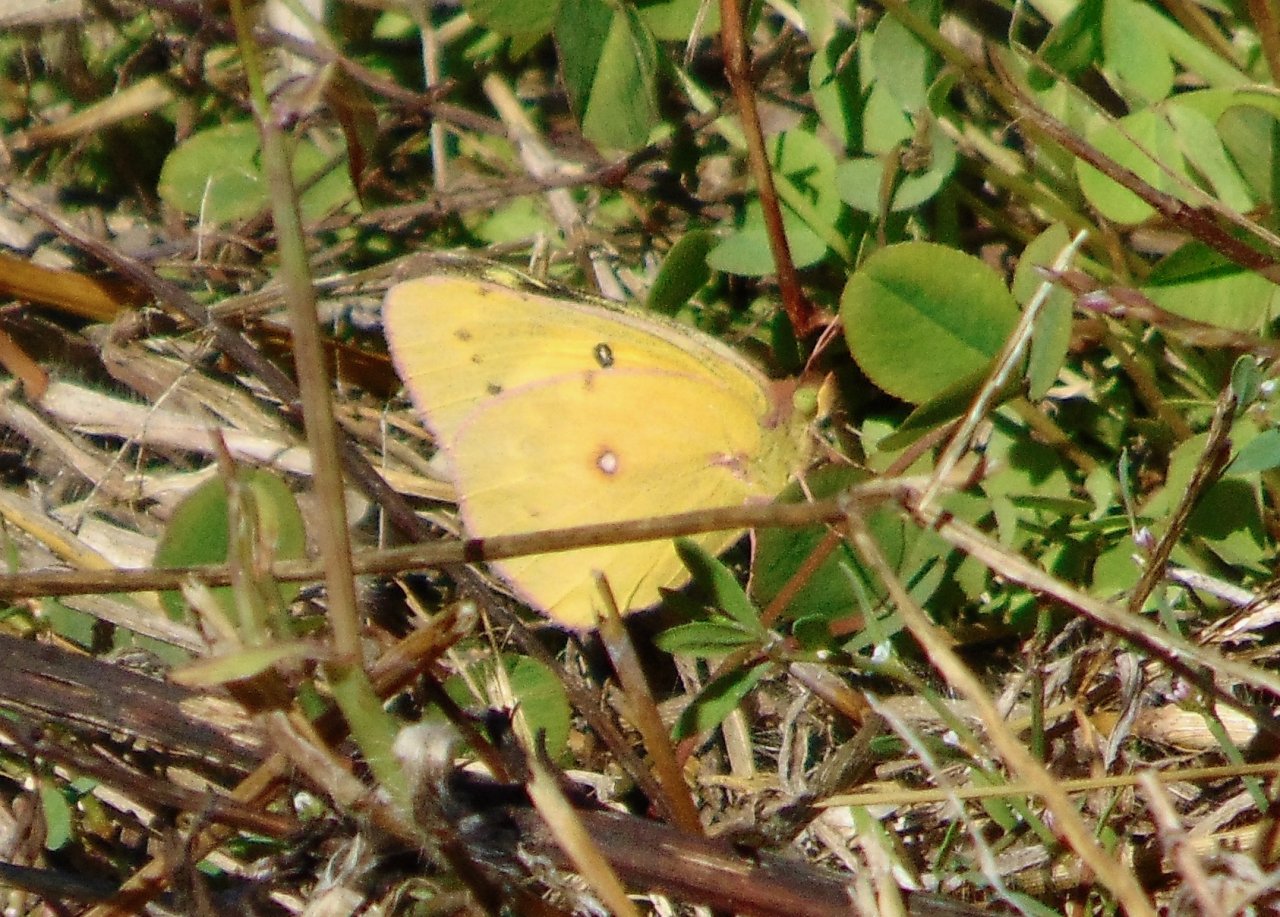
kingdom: Animalia
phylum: Arthropoda
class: Insecta
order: Lepidoptera
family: Pieridae
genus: Colias
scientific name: Colias philodice
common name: Clouded Sulphur
